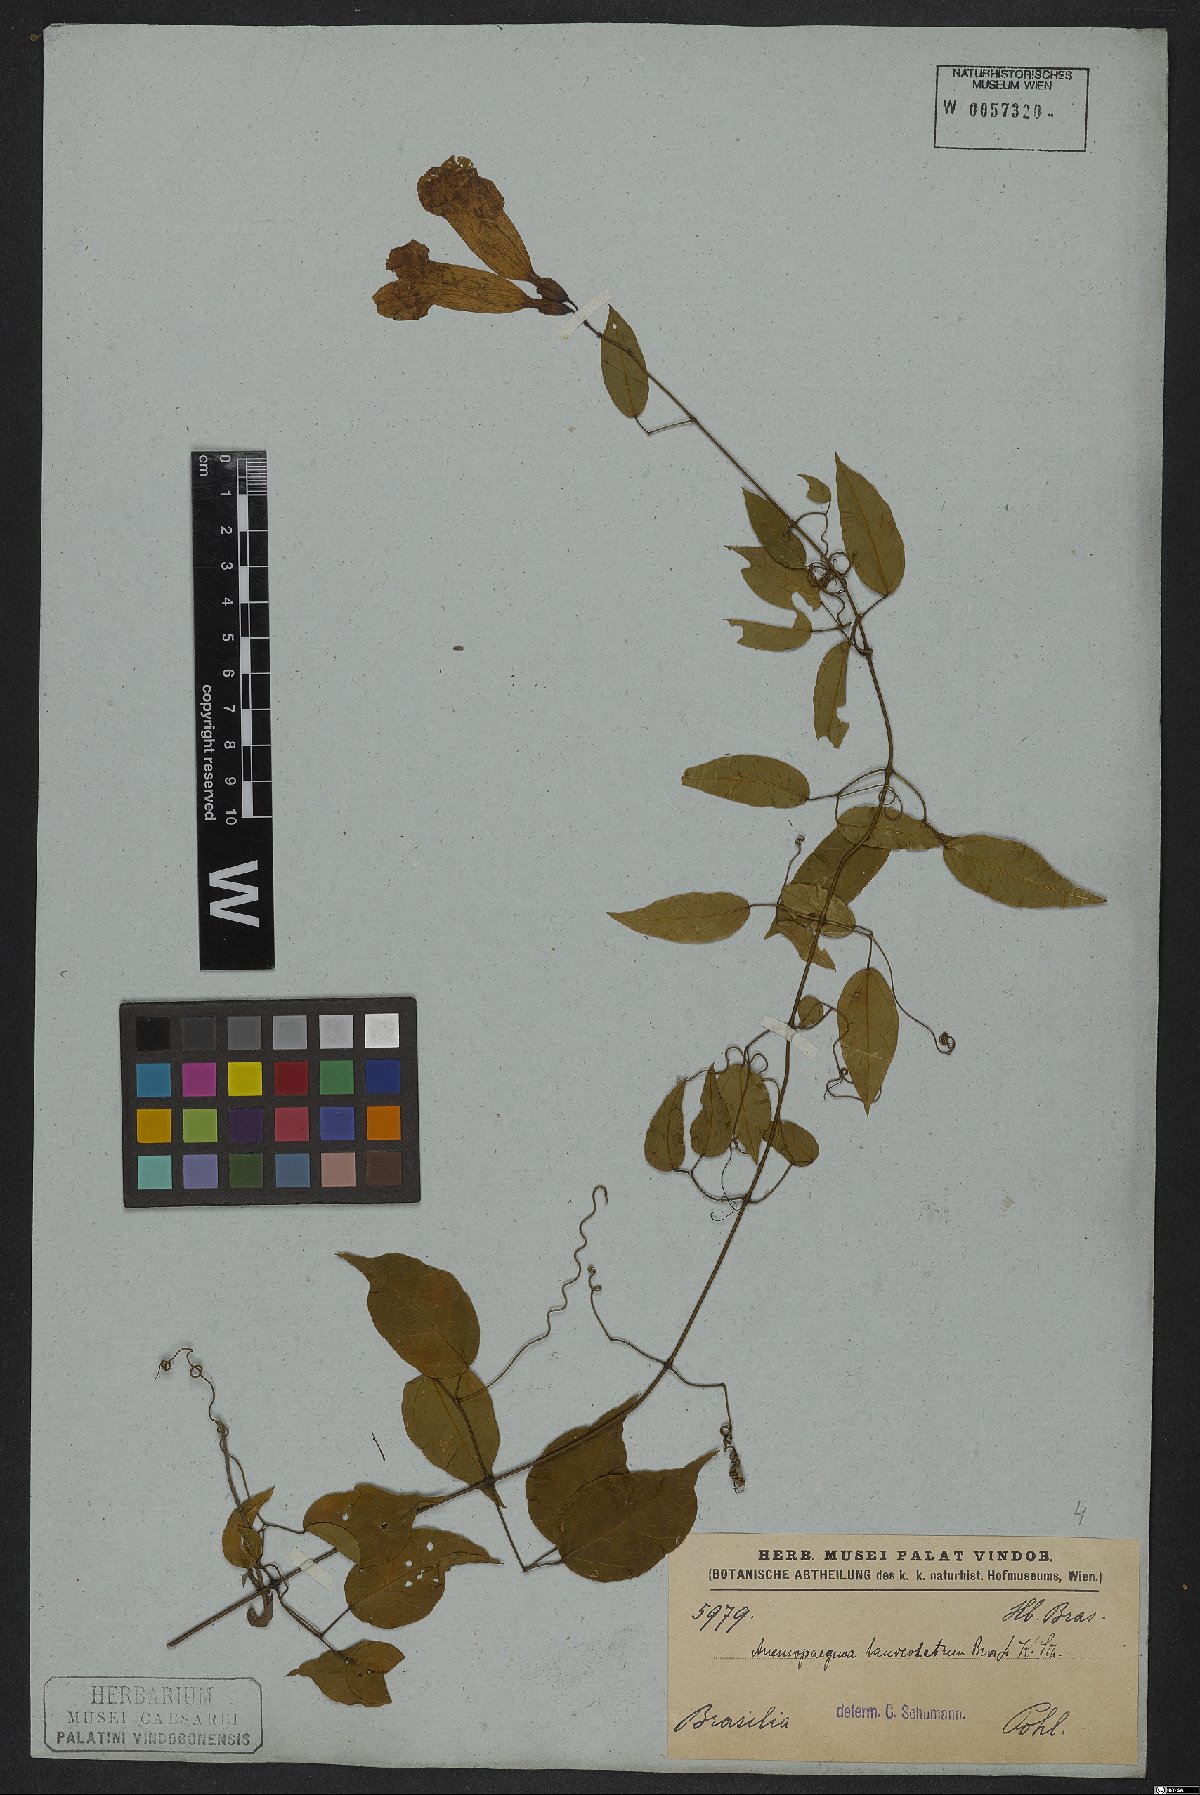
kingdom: Plantae
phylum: Tracheophyta
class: Magnoliopsida
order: Lamiales
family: Bignoniaceae
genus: Mansoa
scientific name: Mansoa lanceolata
